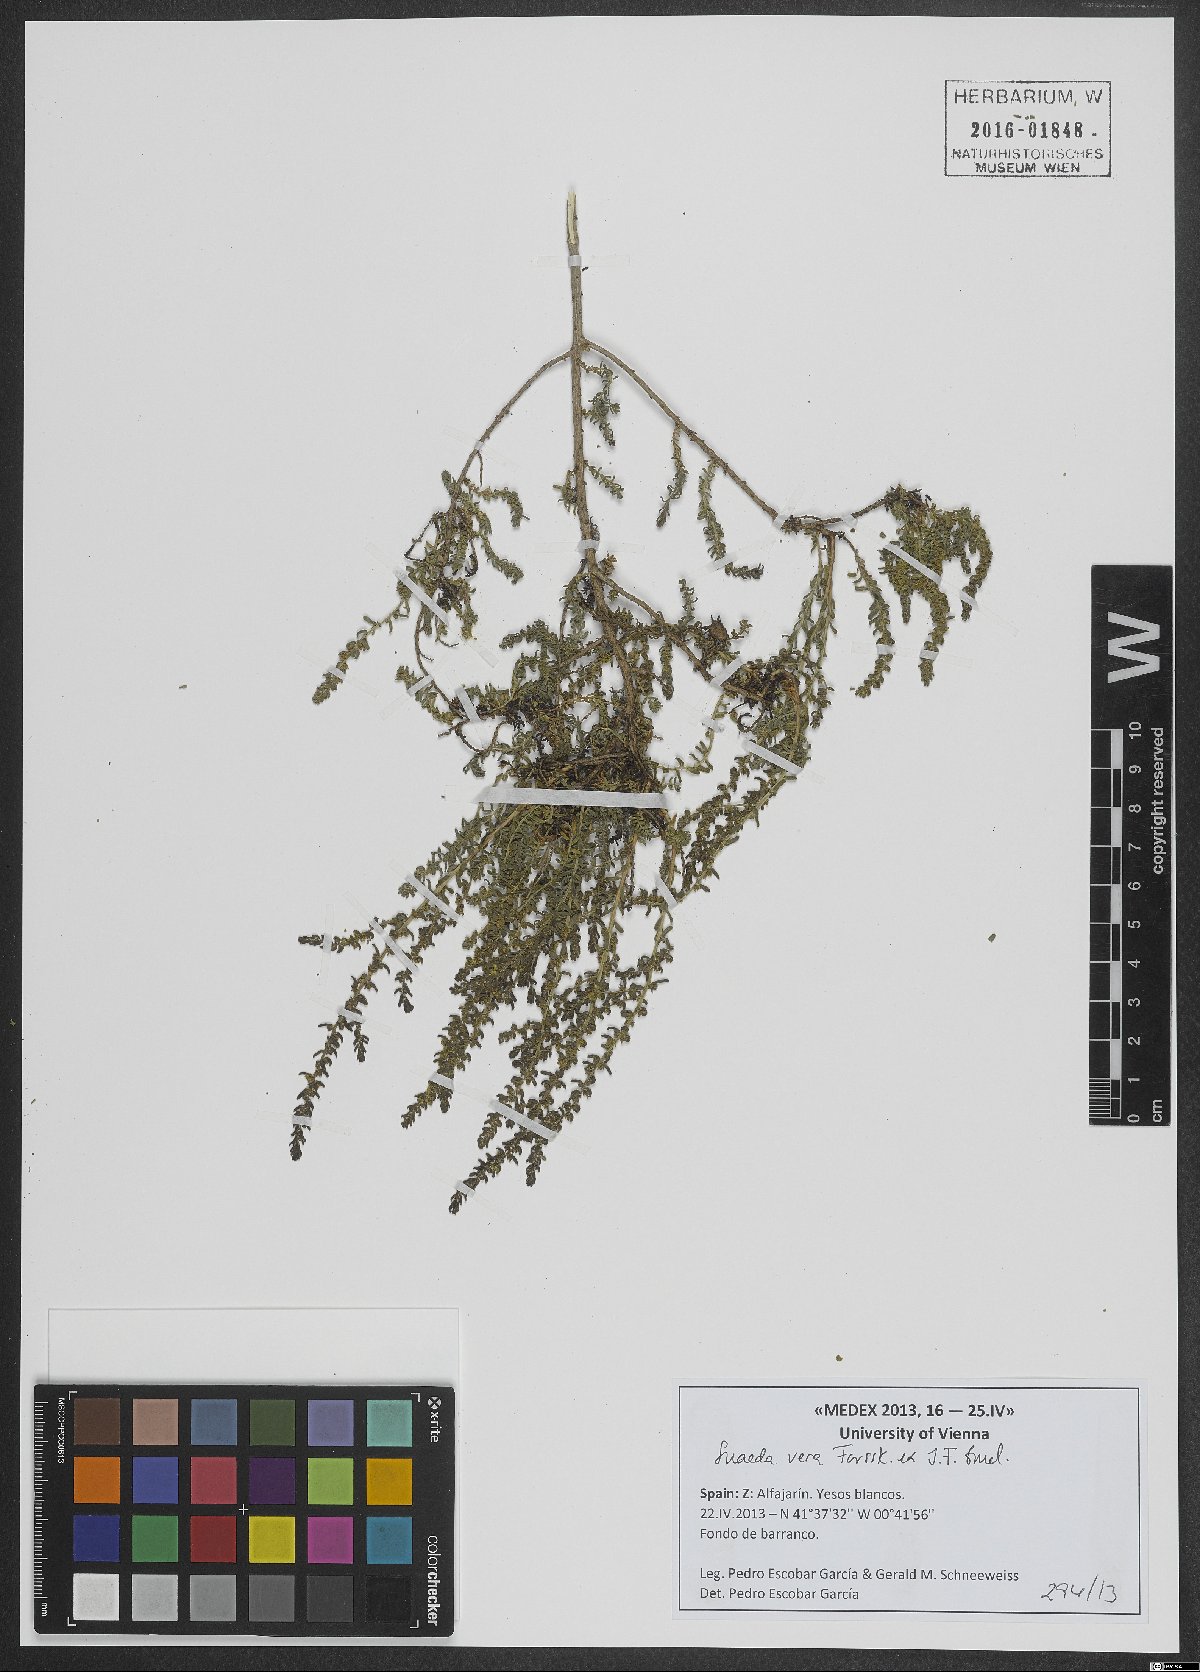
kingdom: Plantae
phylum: Tracheophyta
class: Magnoliopsida
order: Caryophyllales
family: Amaranthaceae
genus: Suaeda
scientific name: Suaeda vera
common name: Shrubby sea-blite
